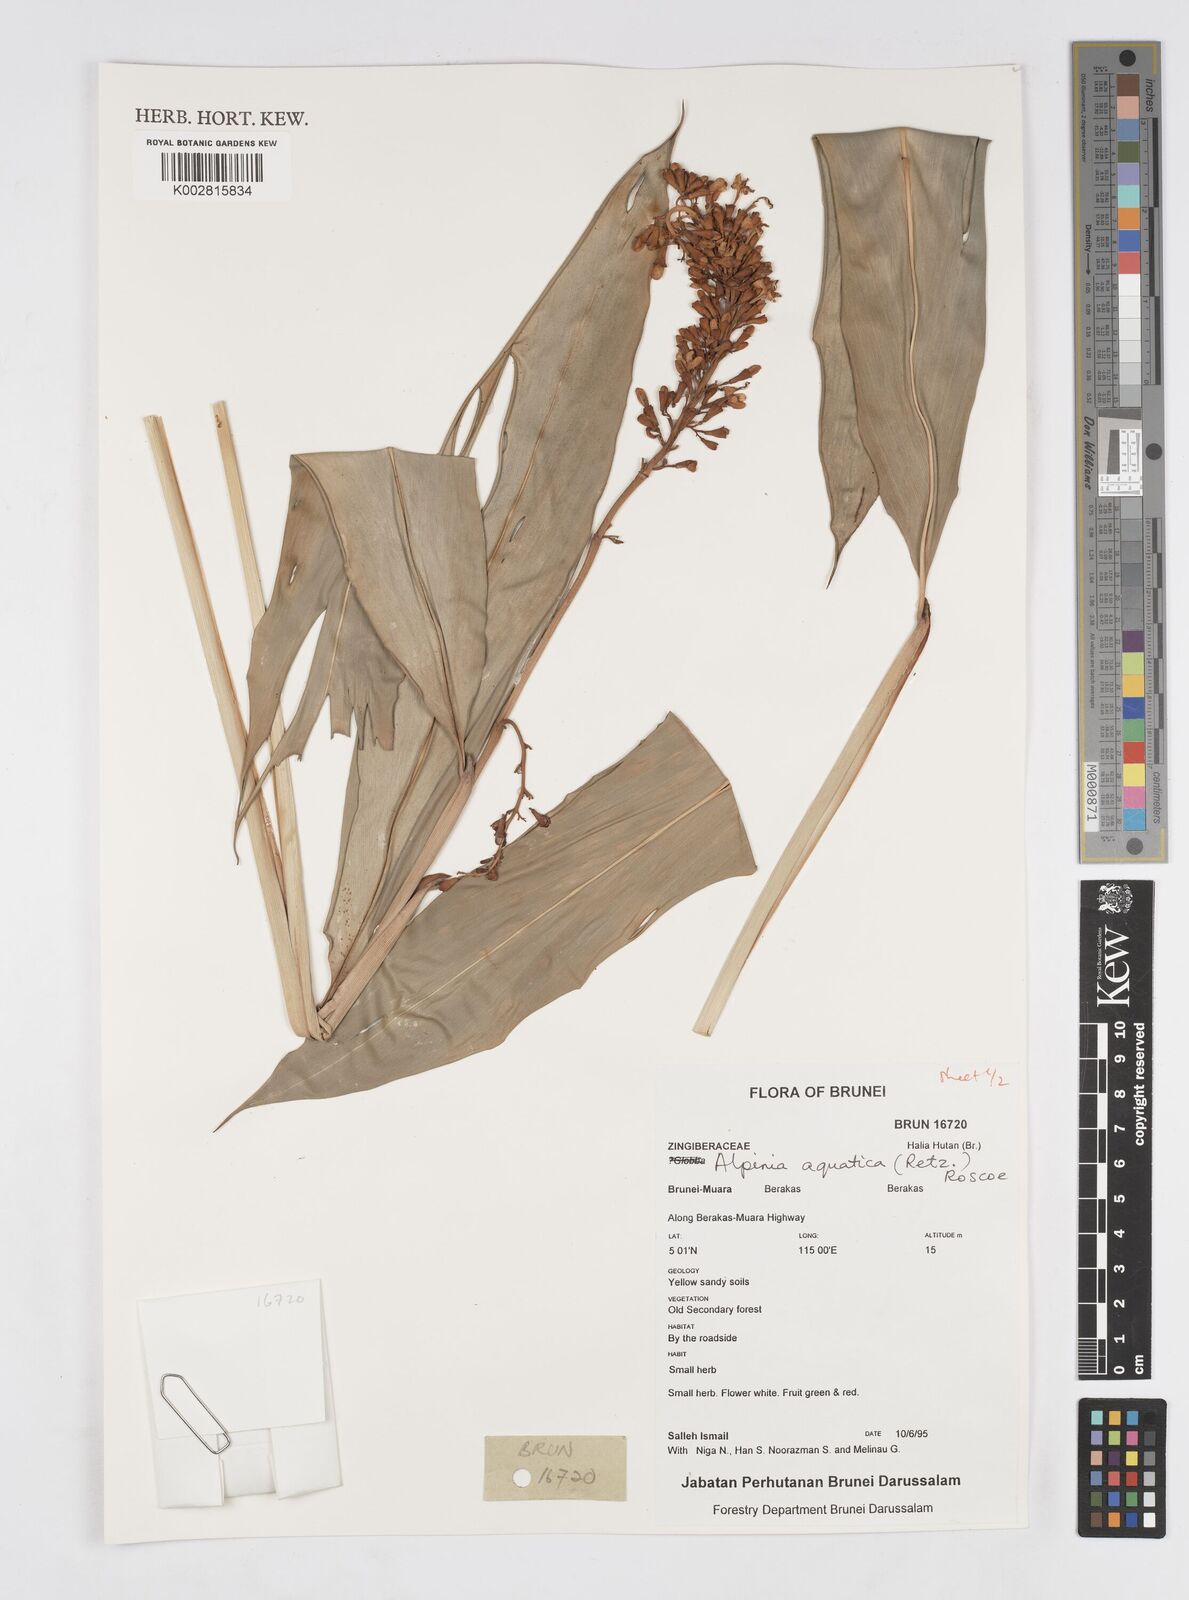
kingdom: Plantae
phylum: Tracheophyta
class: Liliopsida
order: Zingiberales
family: Zingiberaceae
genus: Alpinia
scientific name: Alpinia aquatica
